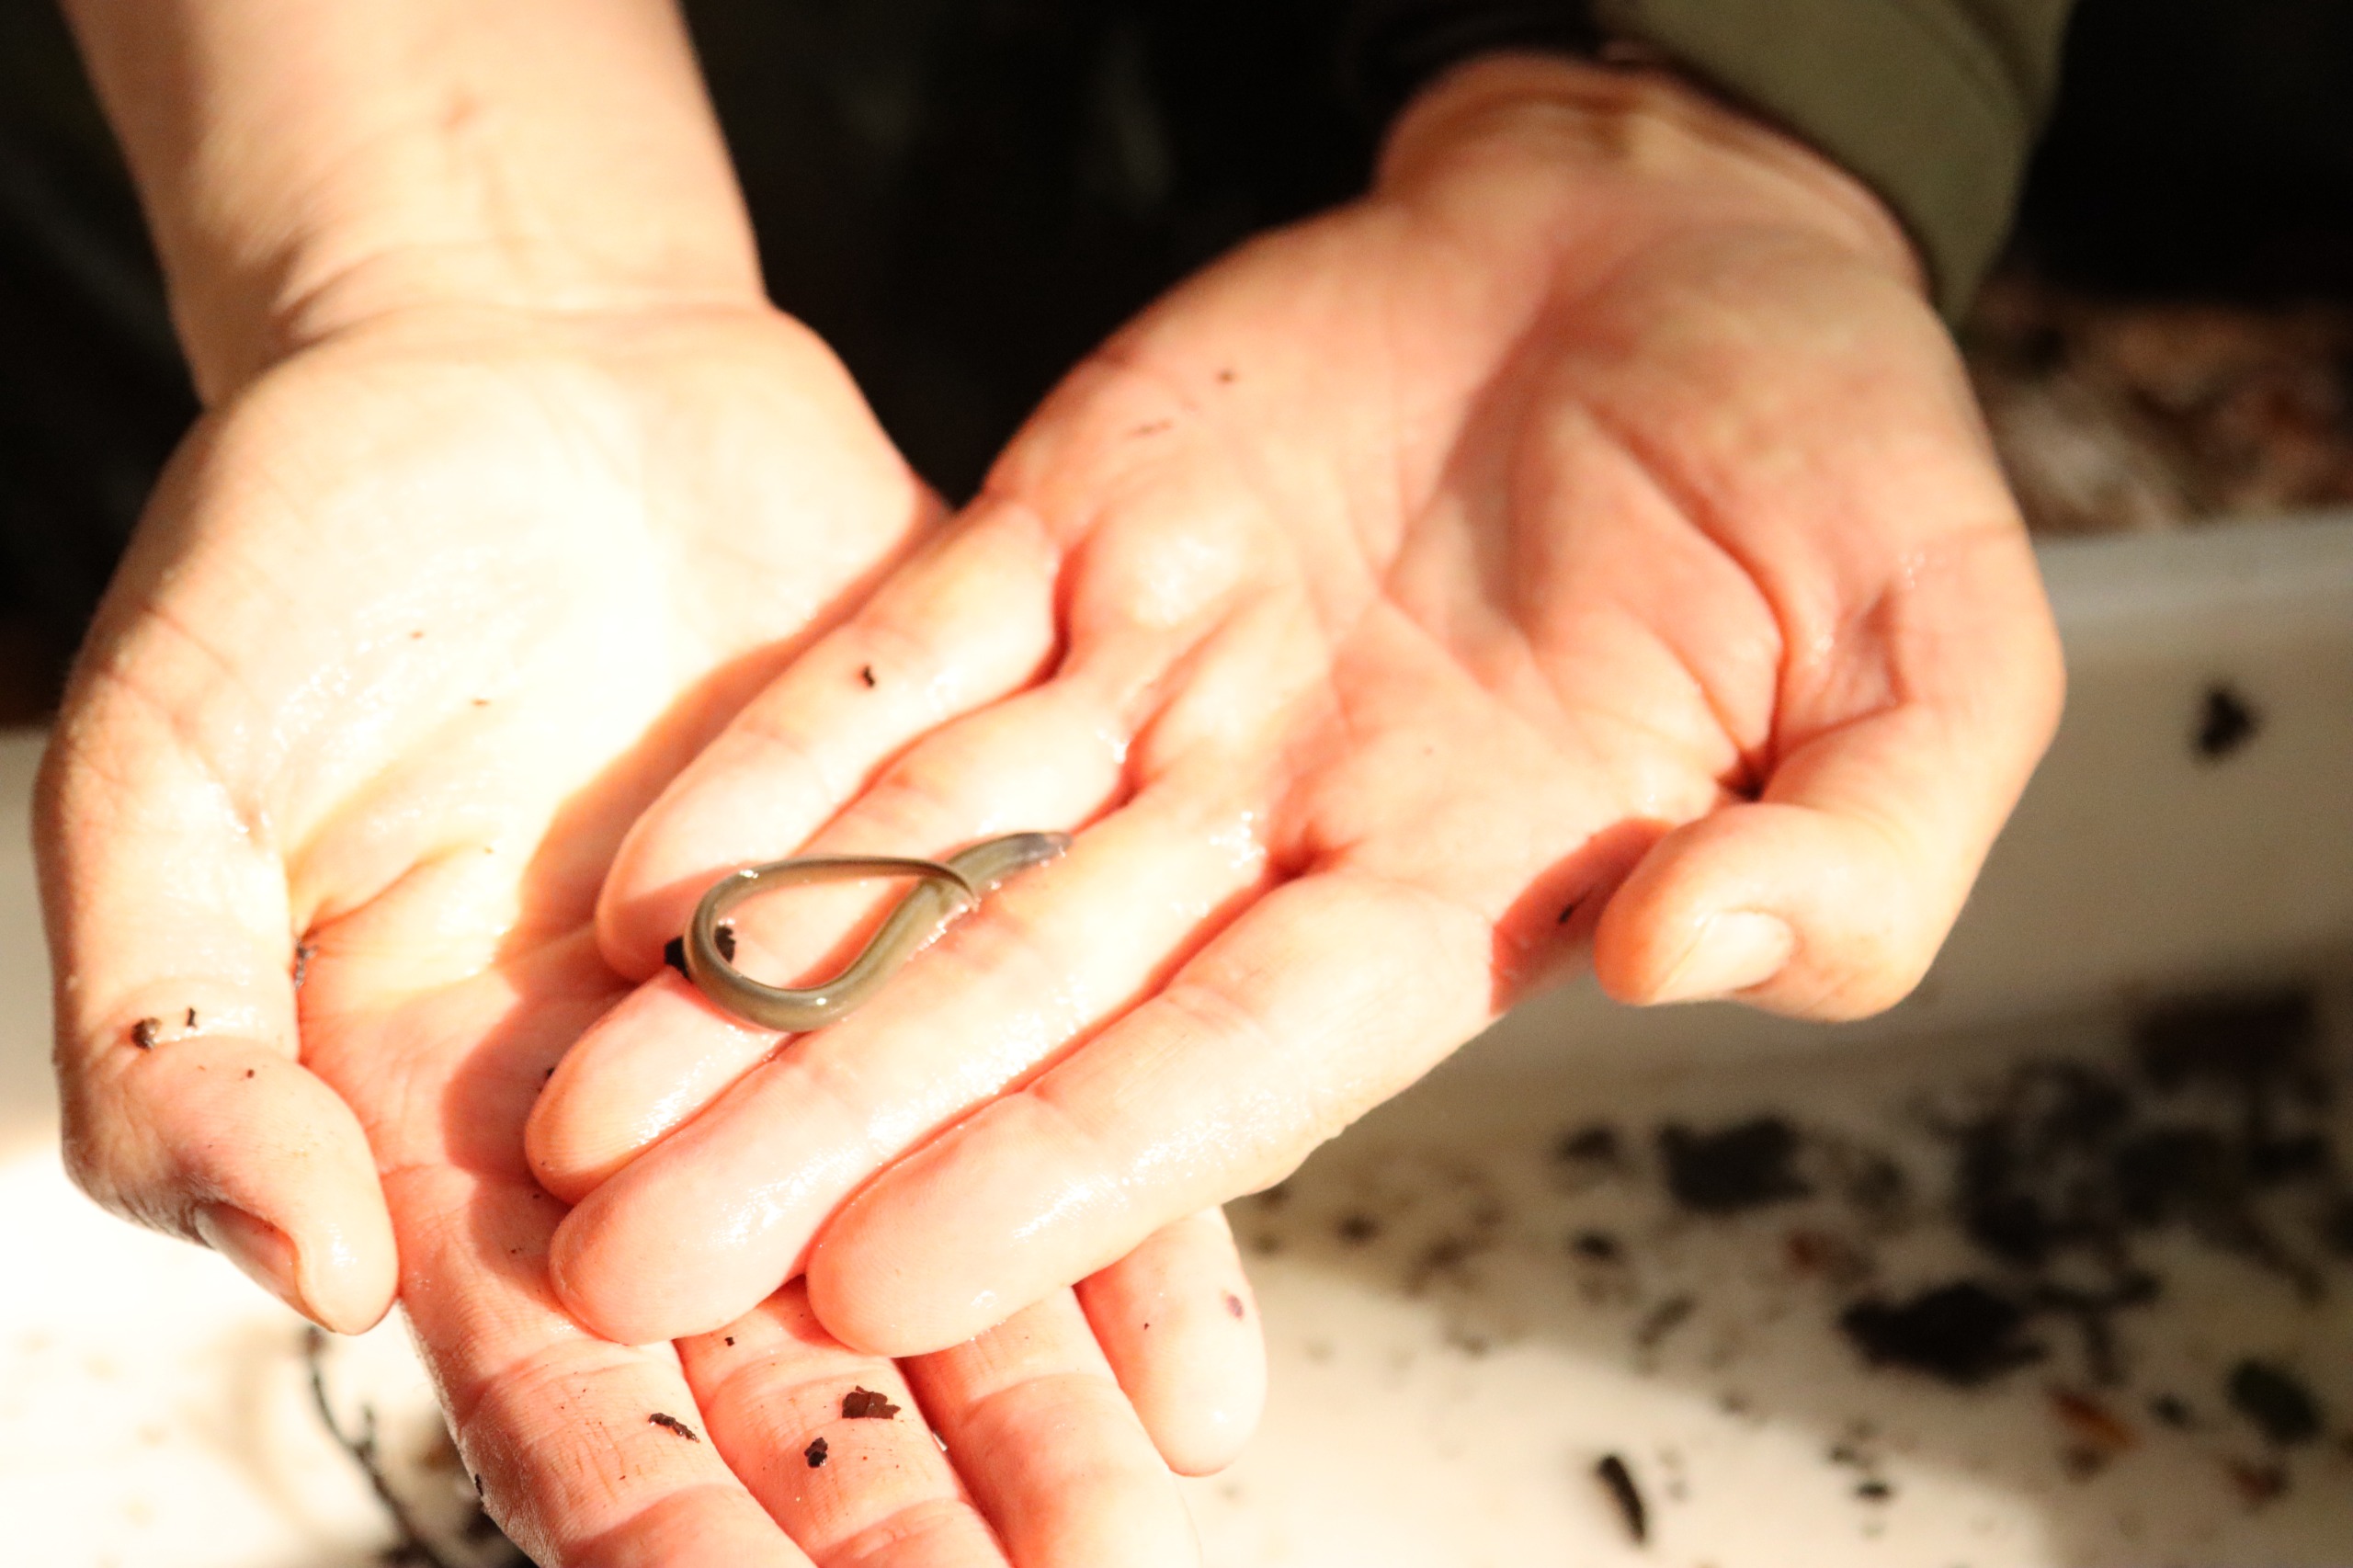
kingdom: Animalia
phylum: Chordata
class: Petromyzonti
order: Petromyzontiformes
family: Petromyzontidae
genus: Lampetra
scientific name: Lampetra planeri
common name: Bæklampret
